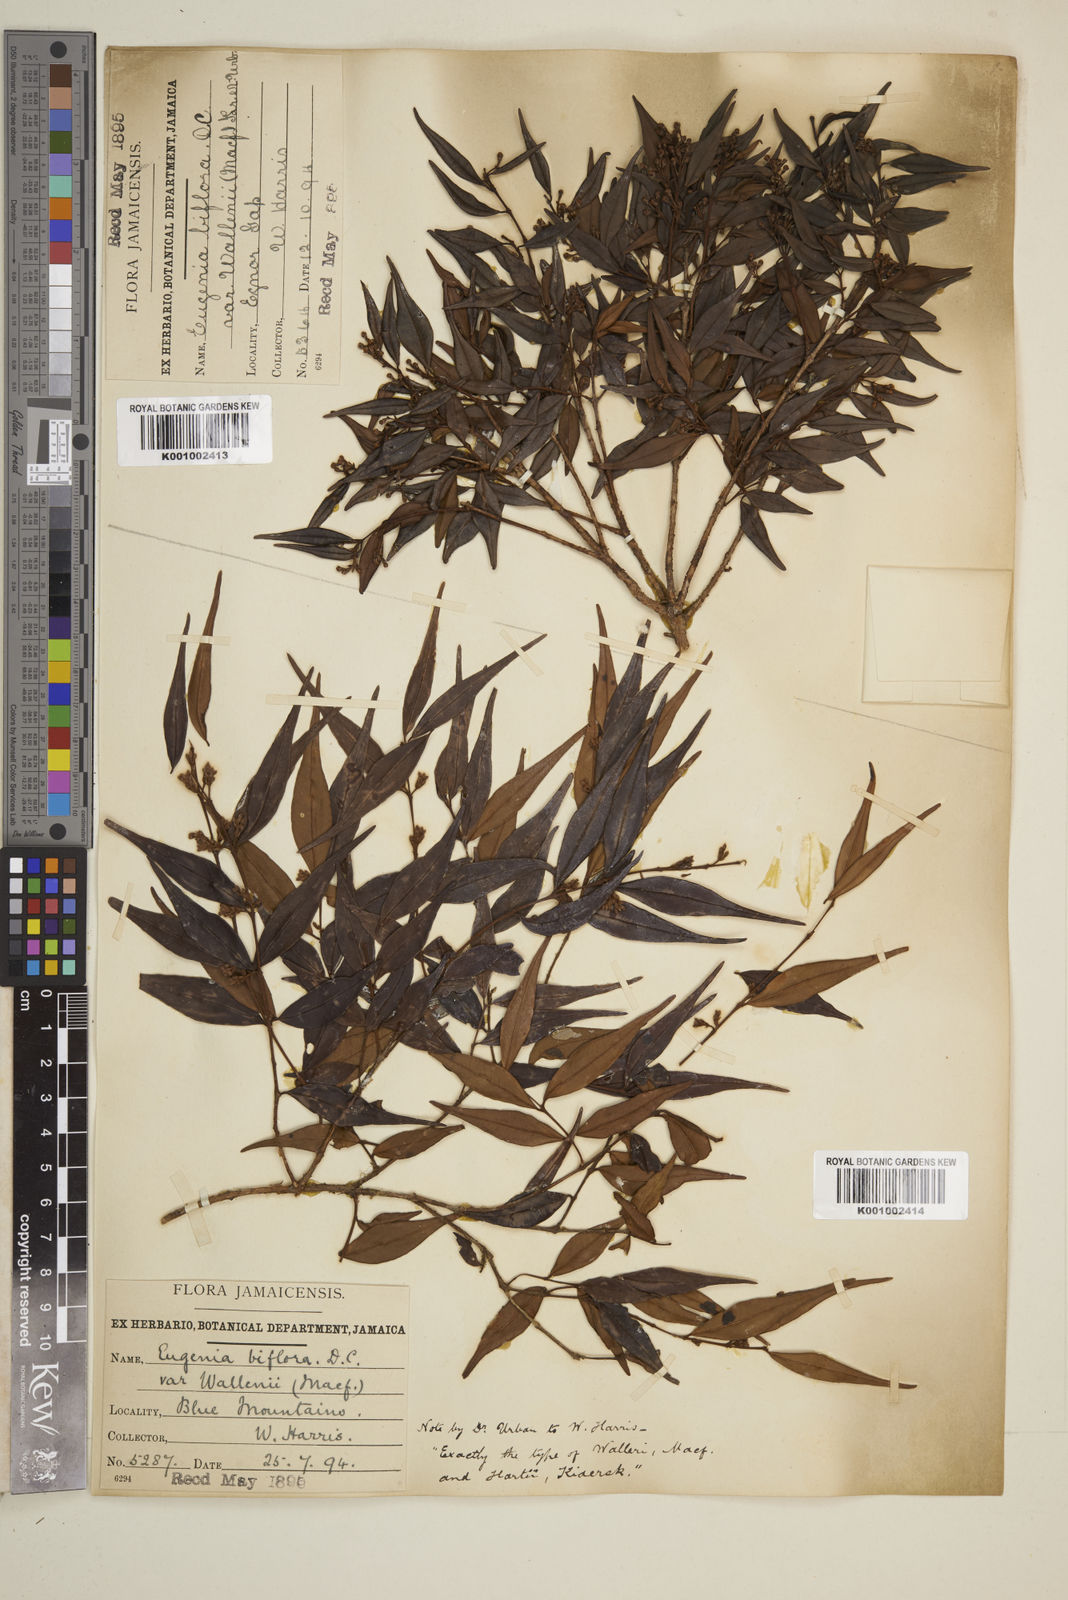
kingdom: Plantae
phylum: Tracheophyta
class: Magnoliopsida
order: Myrtales
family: Myrtaceae
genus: Eugenia
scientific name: Eugenia biflora
